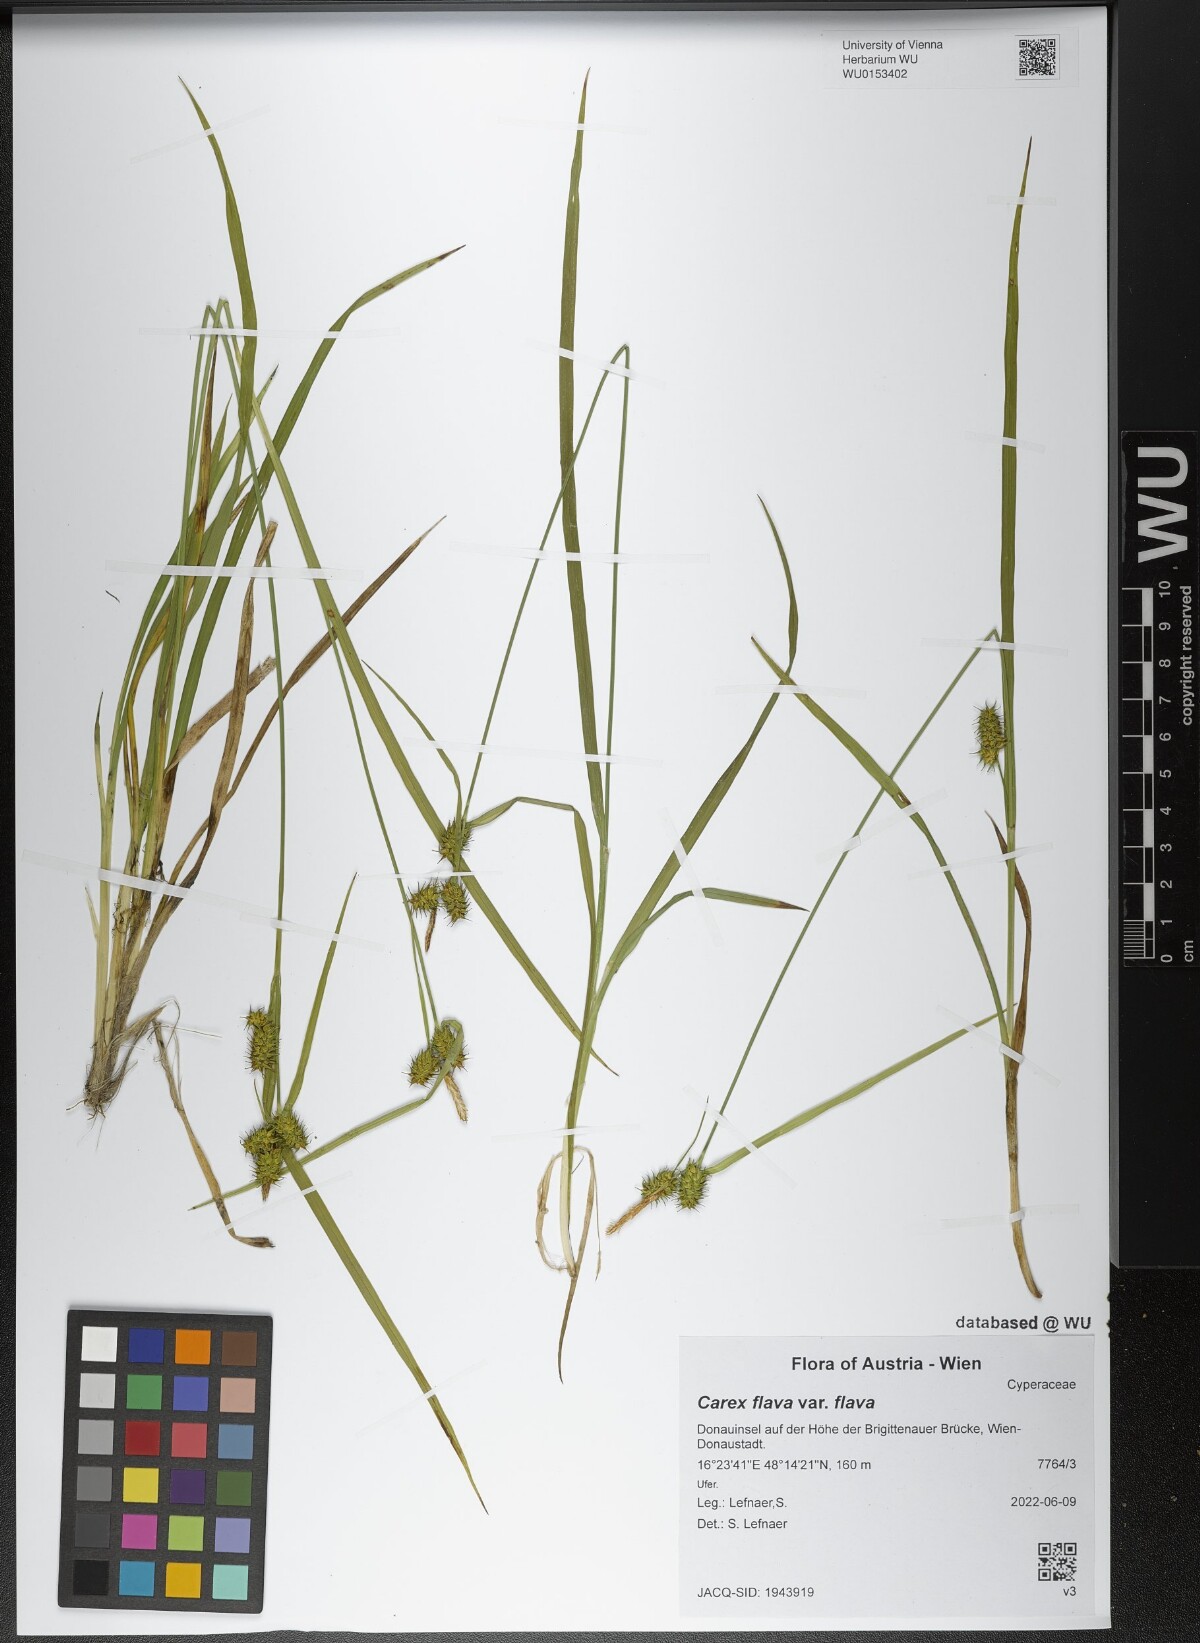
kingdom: Plantae
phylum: Tracheophyta
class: Liliopsida
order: Poales
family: Cyperaceae
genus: Carex
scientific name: Carex flava
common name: Large yellow-sedge
